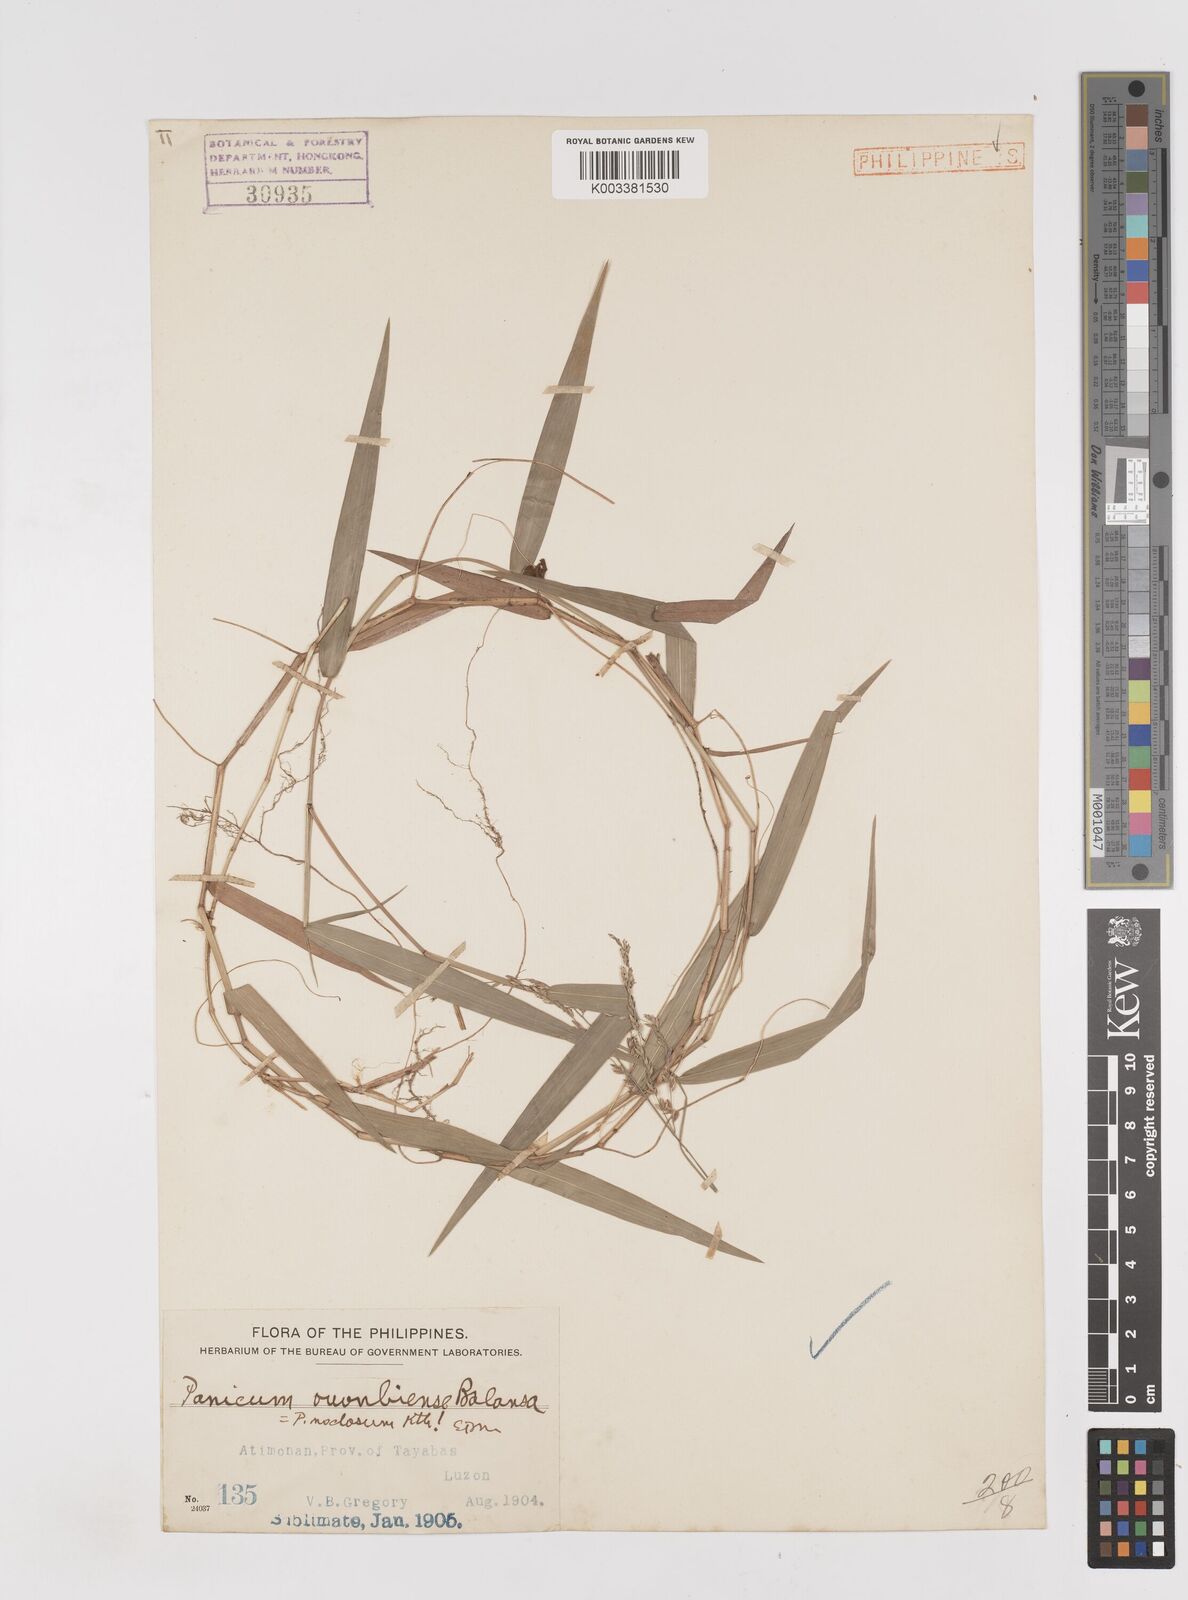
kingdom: Plantae
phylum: Tracheophyta
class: Liliopsida
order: Poales
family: Poaceae
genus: Ottochloa
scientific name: Ottochloa nodosa
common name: Slender-panic grass
